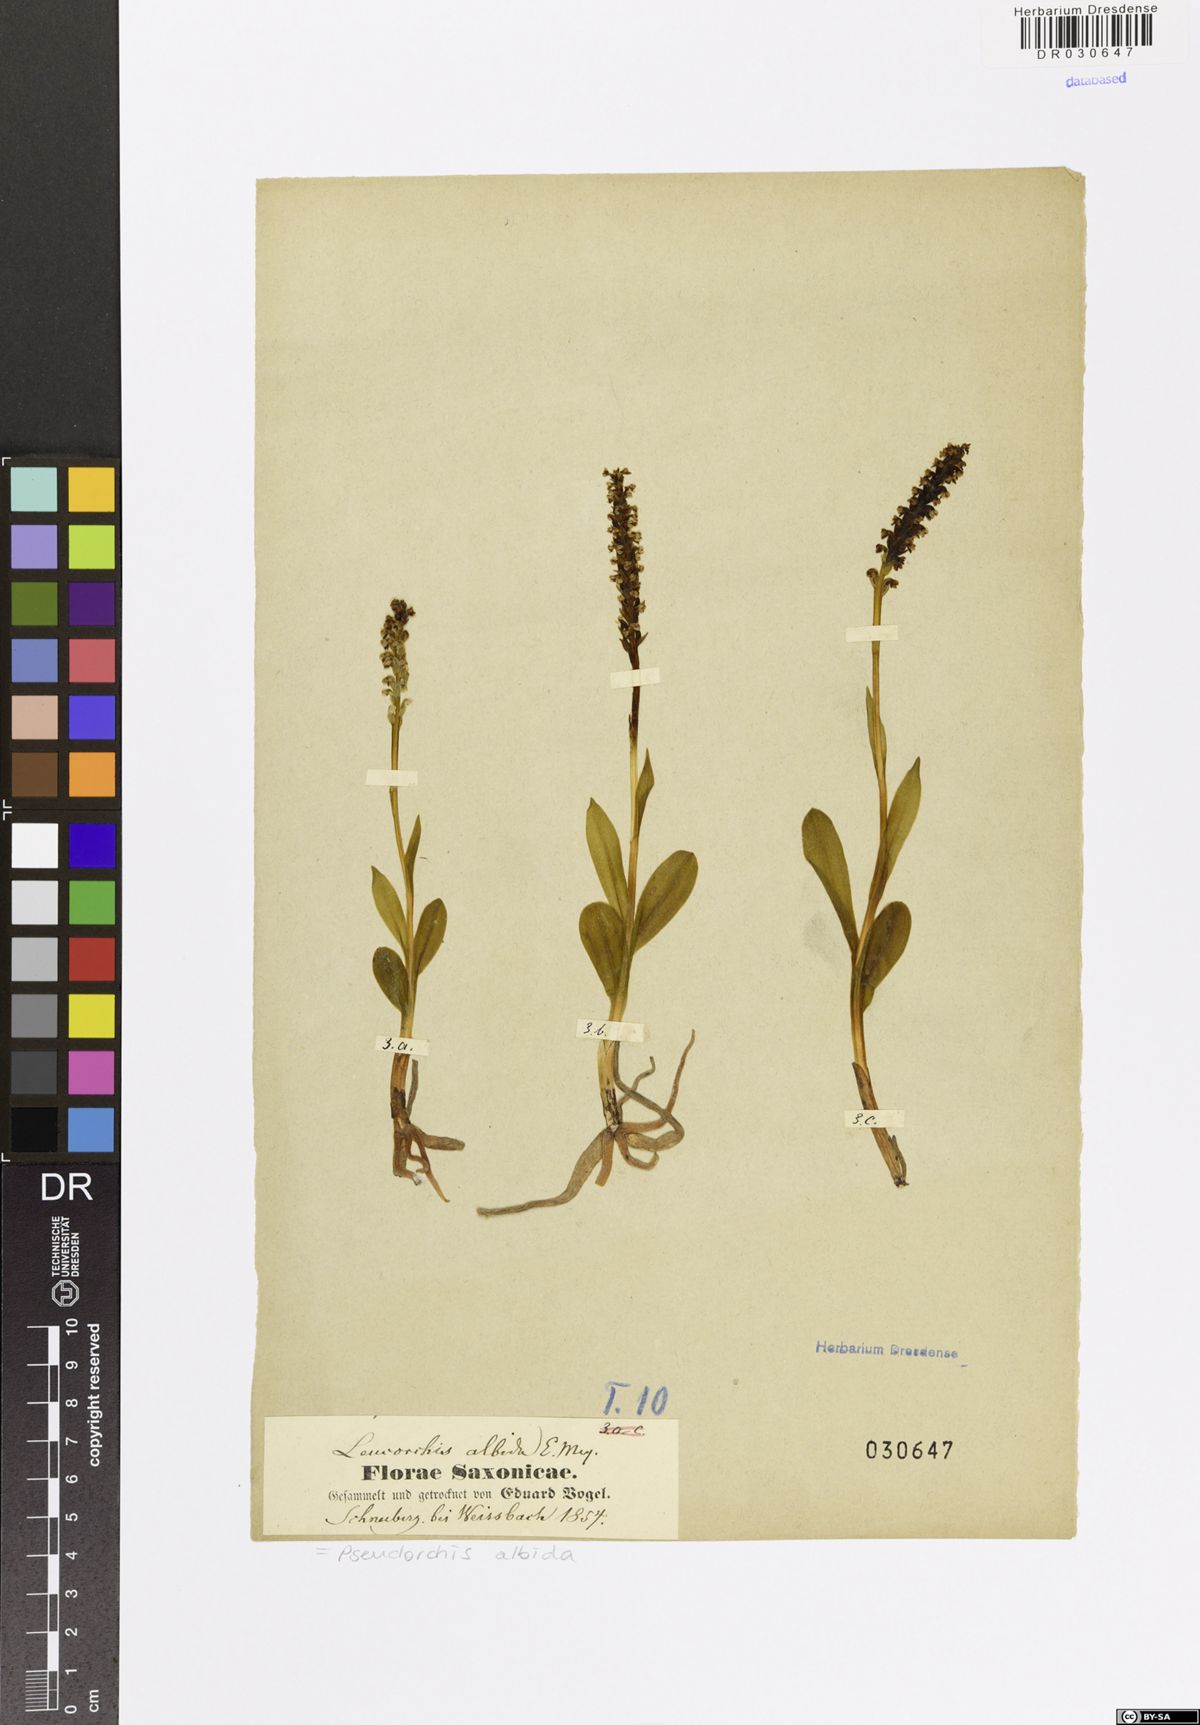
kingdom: Plantae
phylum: Tracheophyta
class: Liliopsida
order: Asparagales
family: Orchidaceae
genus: Pseudorchis
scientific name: Pseudorchis albida
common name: Small-white orchid
